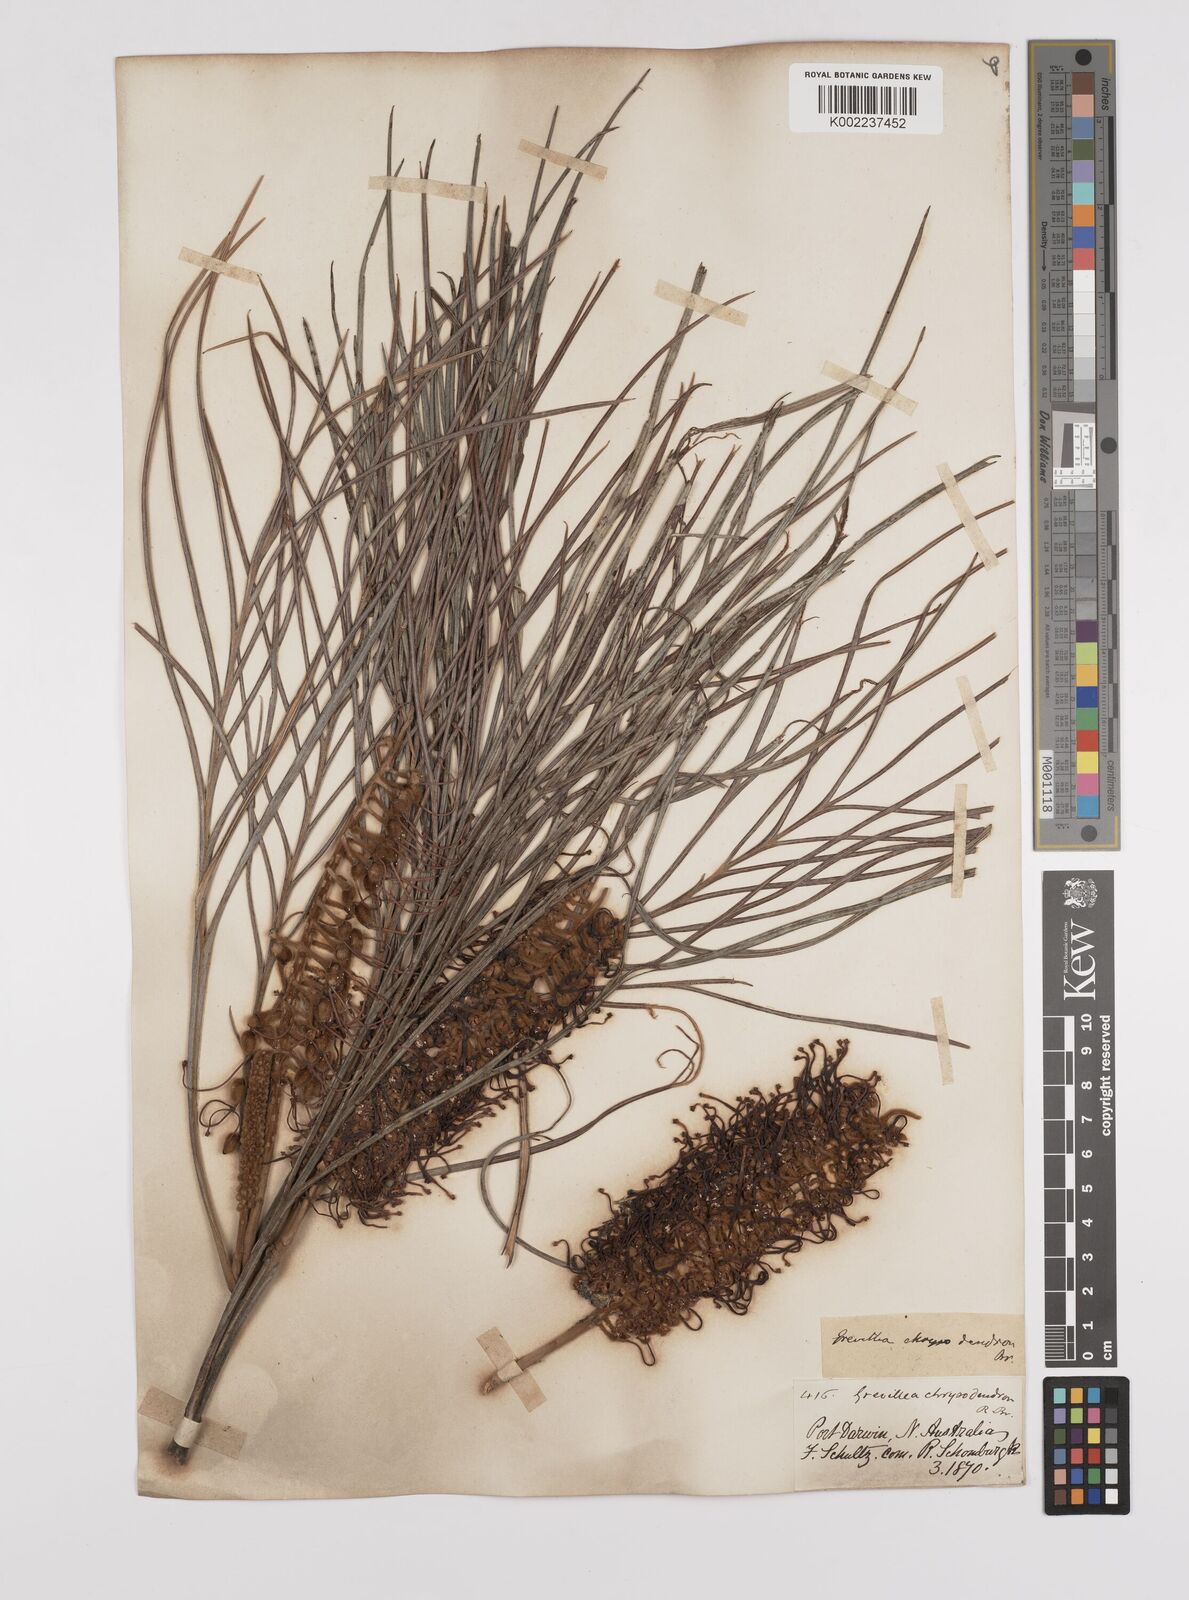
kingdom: Plantae
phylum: Tracheophyta
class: Magnoliopsida
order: Proteales
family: Proteaceae
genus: Grevillea
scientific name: Grevillea pteridifolia
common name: Golden grevillea
